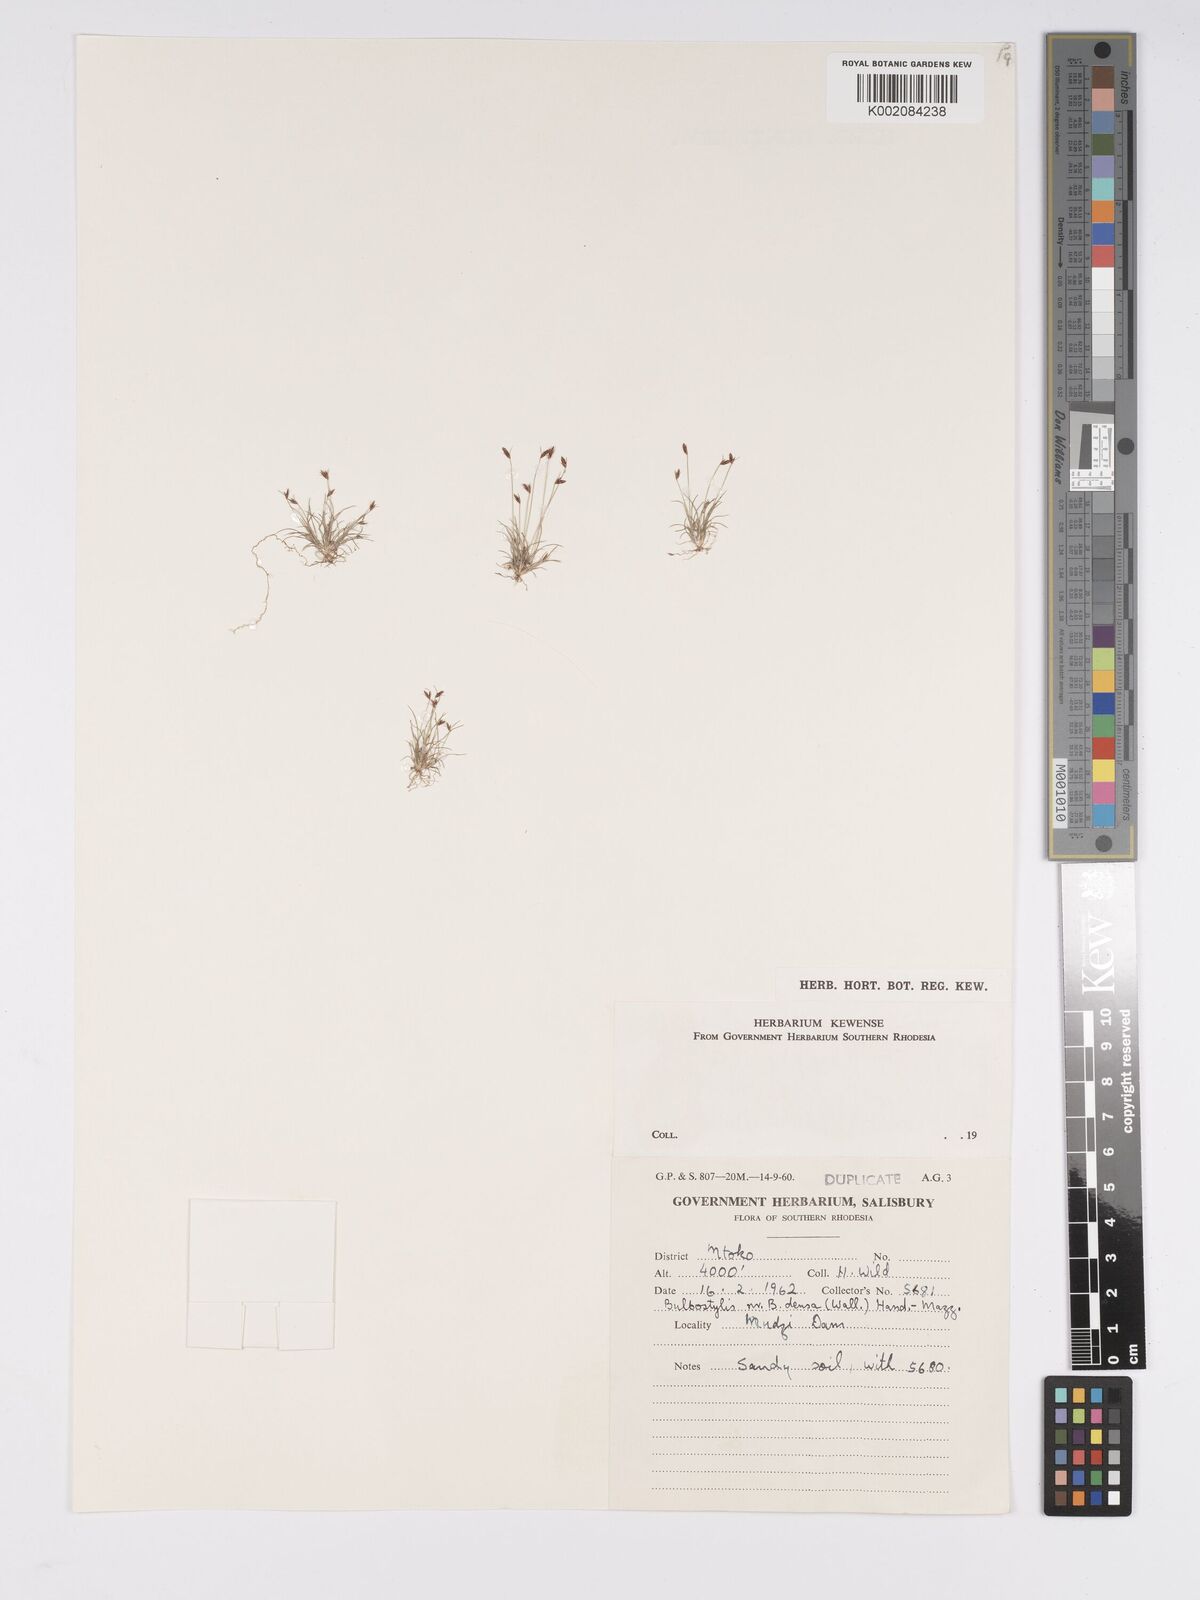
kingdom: Plantae
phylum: Tracheophyta
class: Liliopsida
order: Poales
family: Cyperaceae
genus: Bulbostylis
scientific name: Bulbostylis
